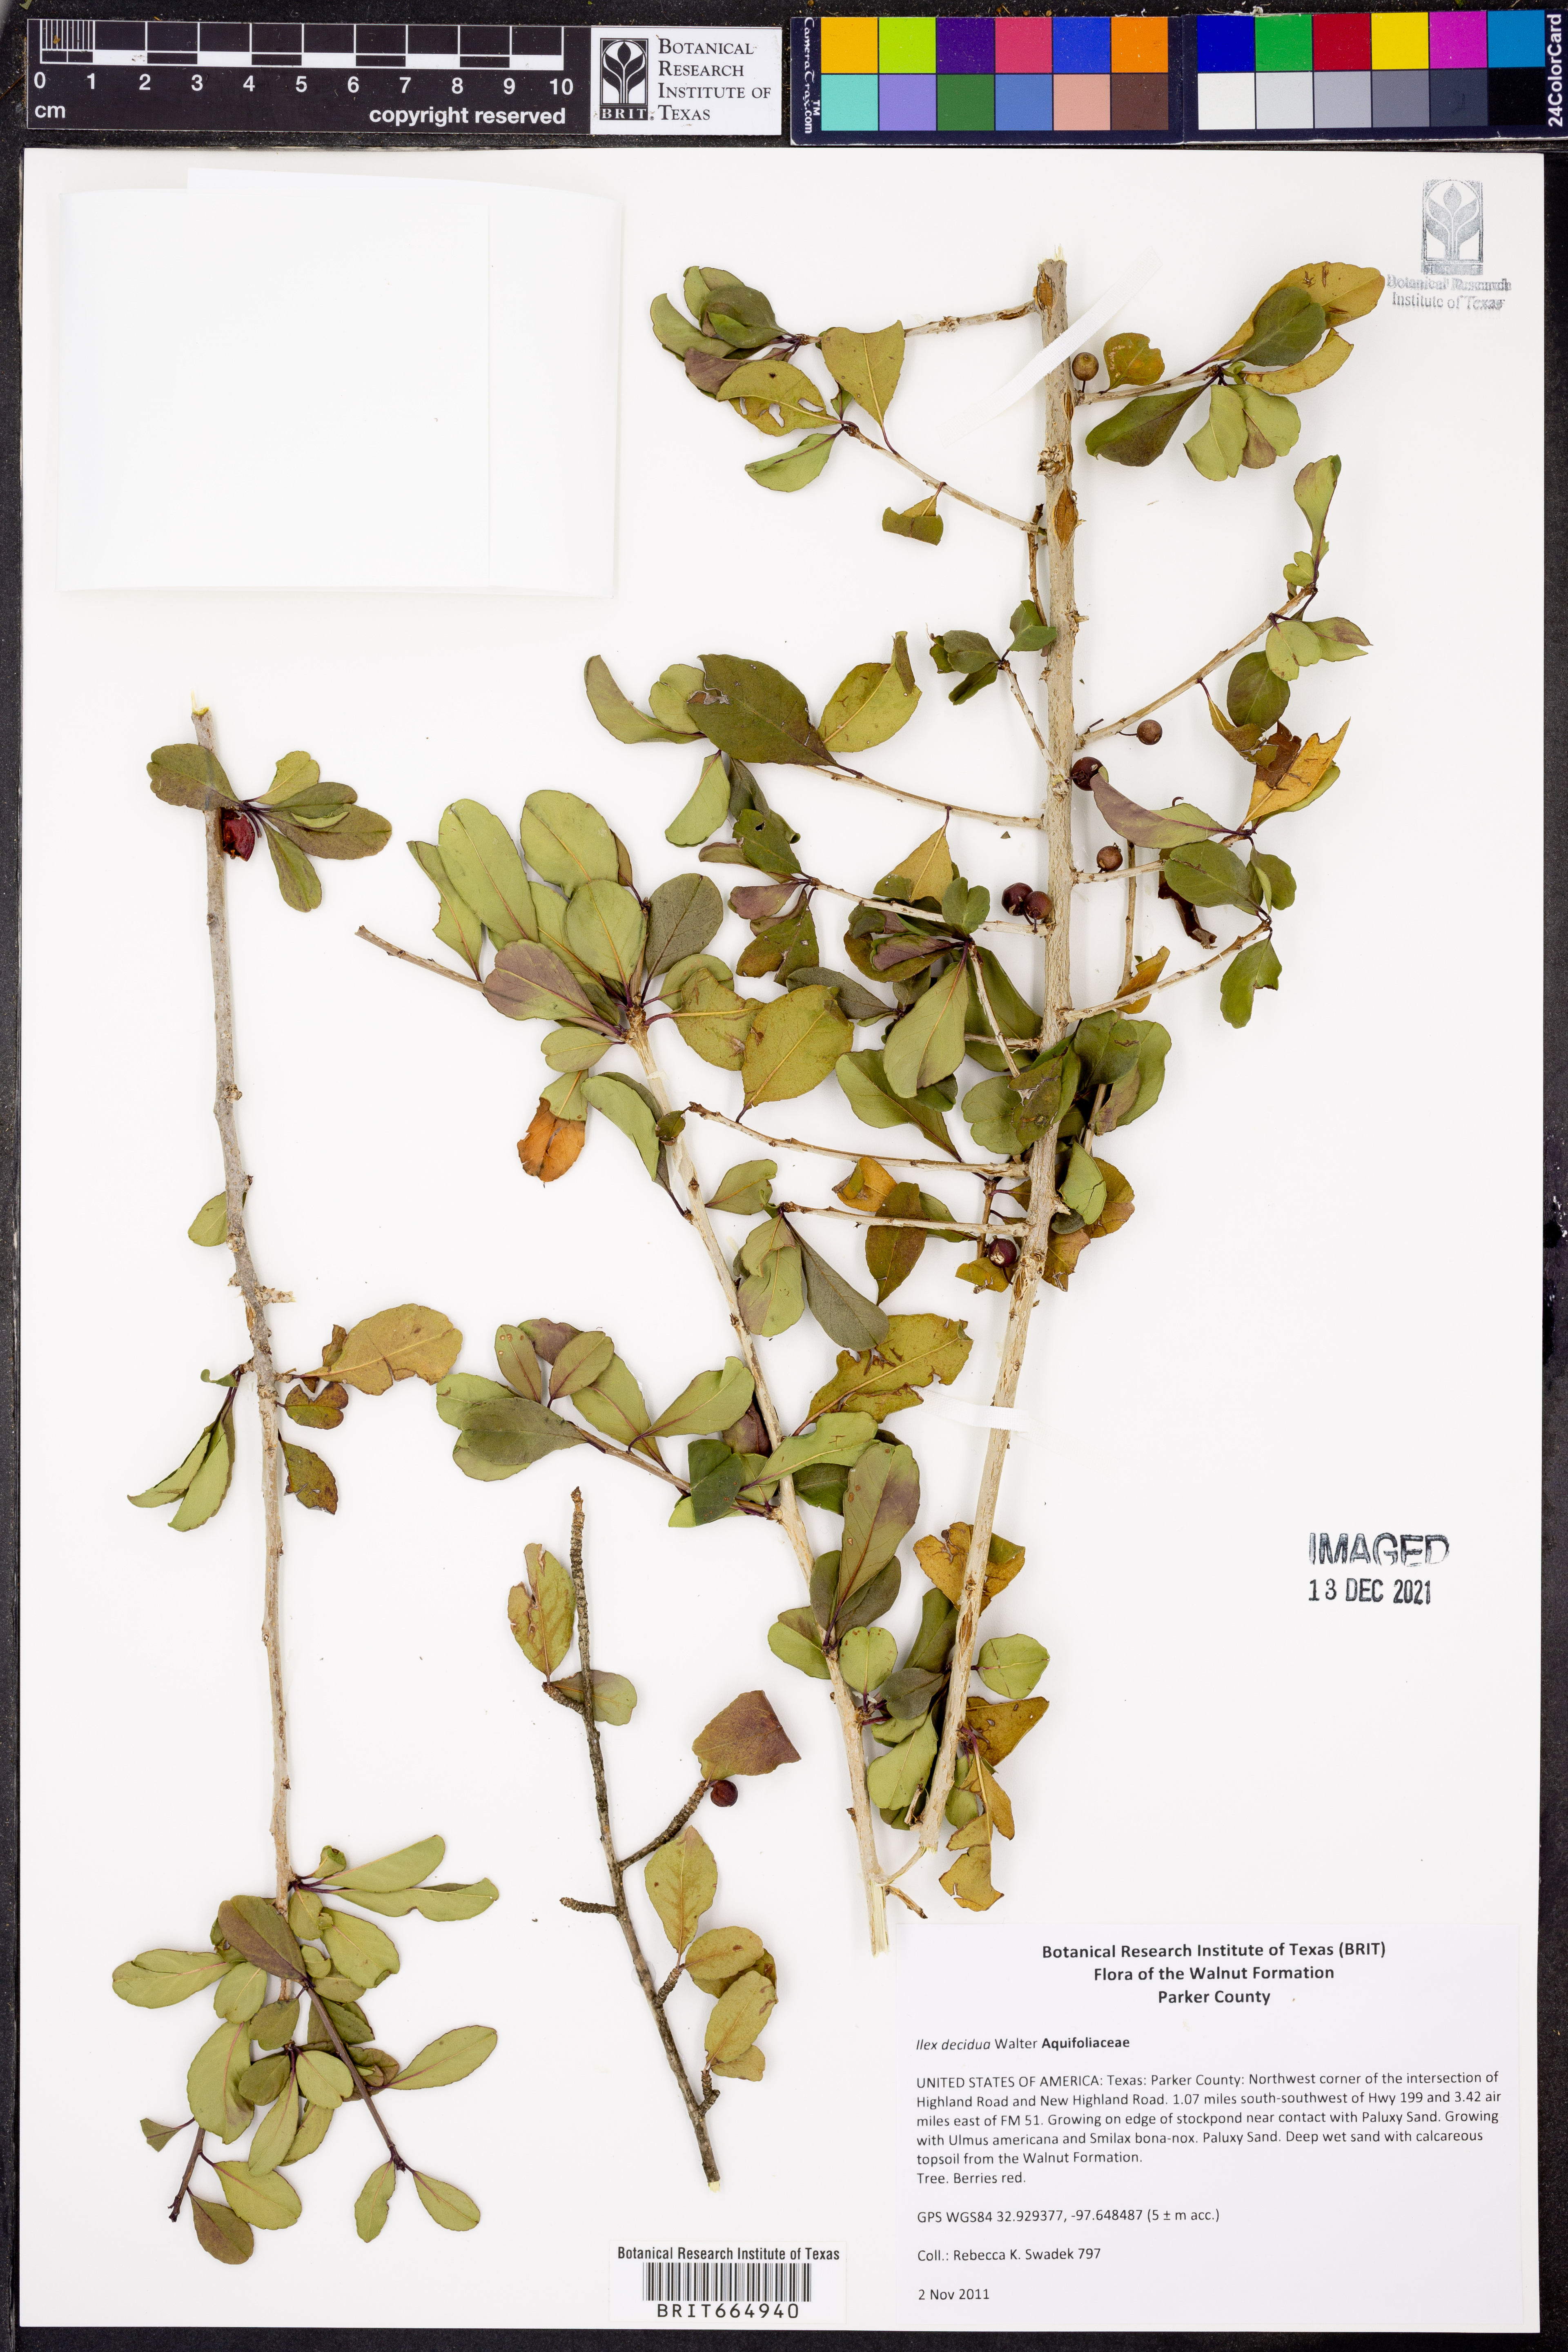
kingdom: Plantae
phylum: Tracheophyta
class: Magnoliopsida
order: Aquifoliales
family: Aquifoliaceae
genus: Ilex
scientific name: Ilex decidua
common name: Possum-haw
